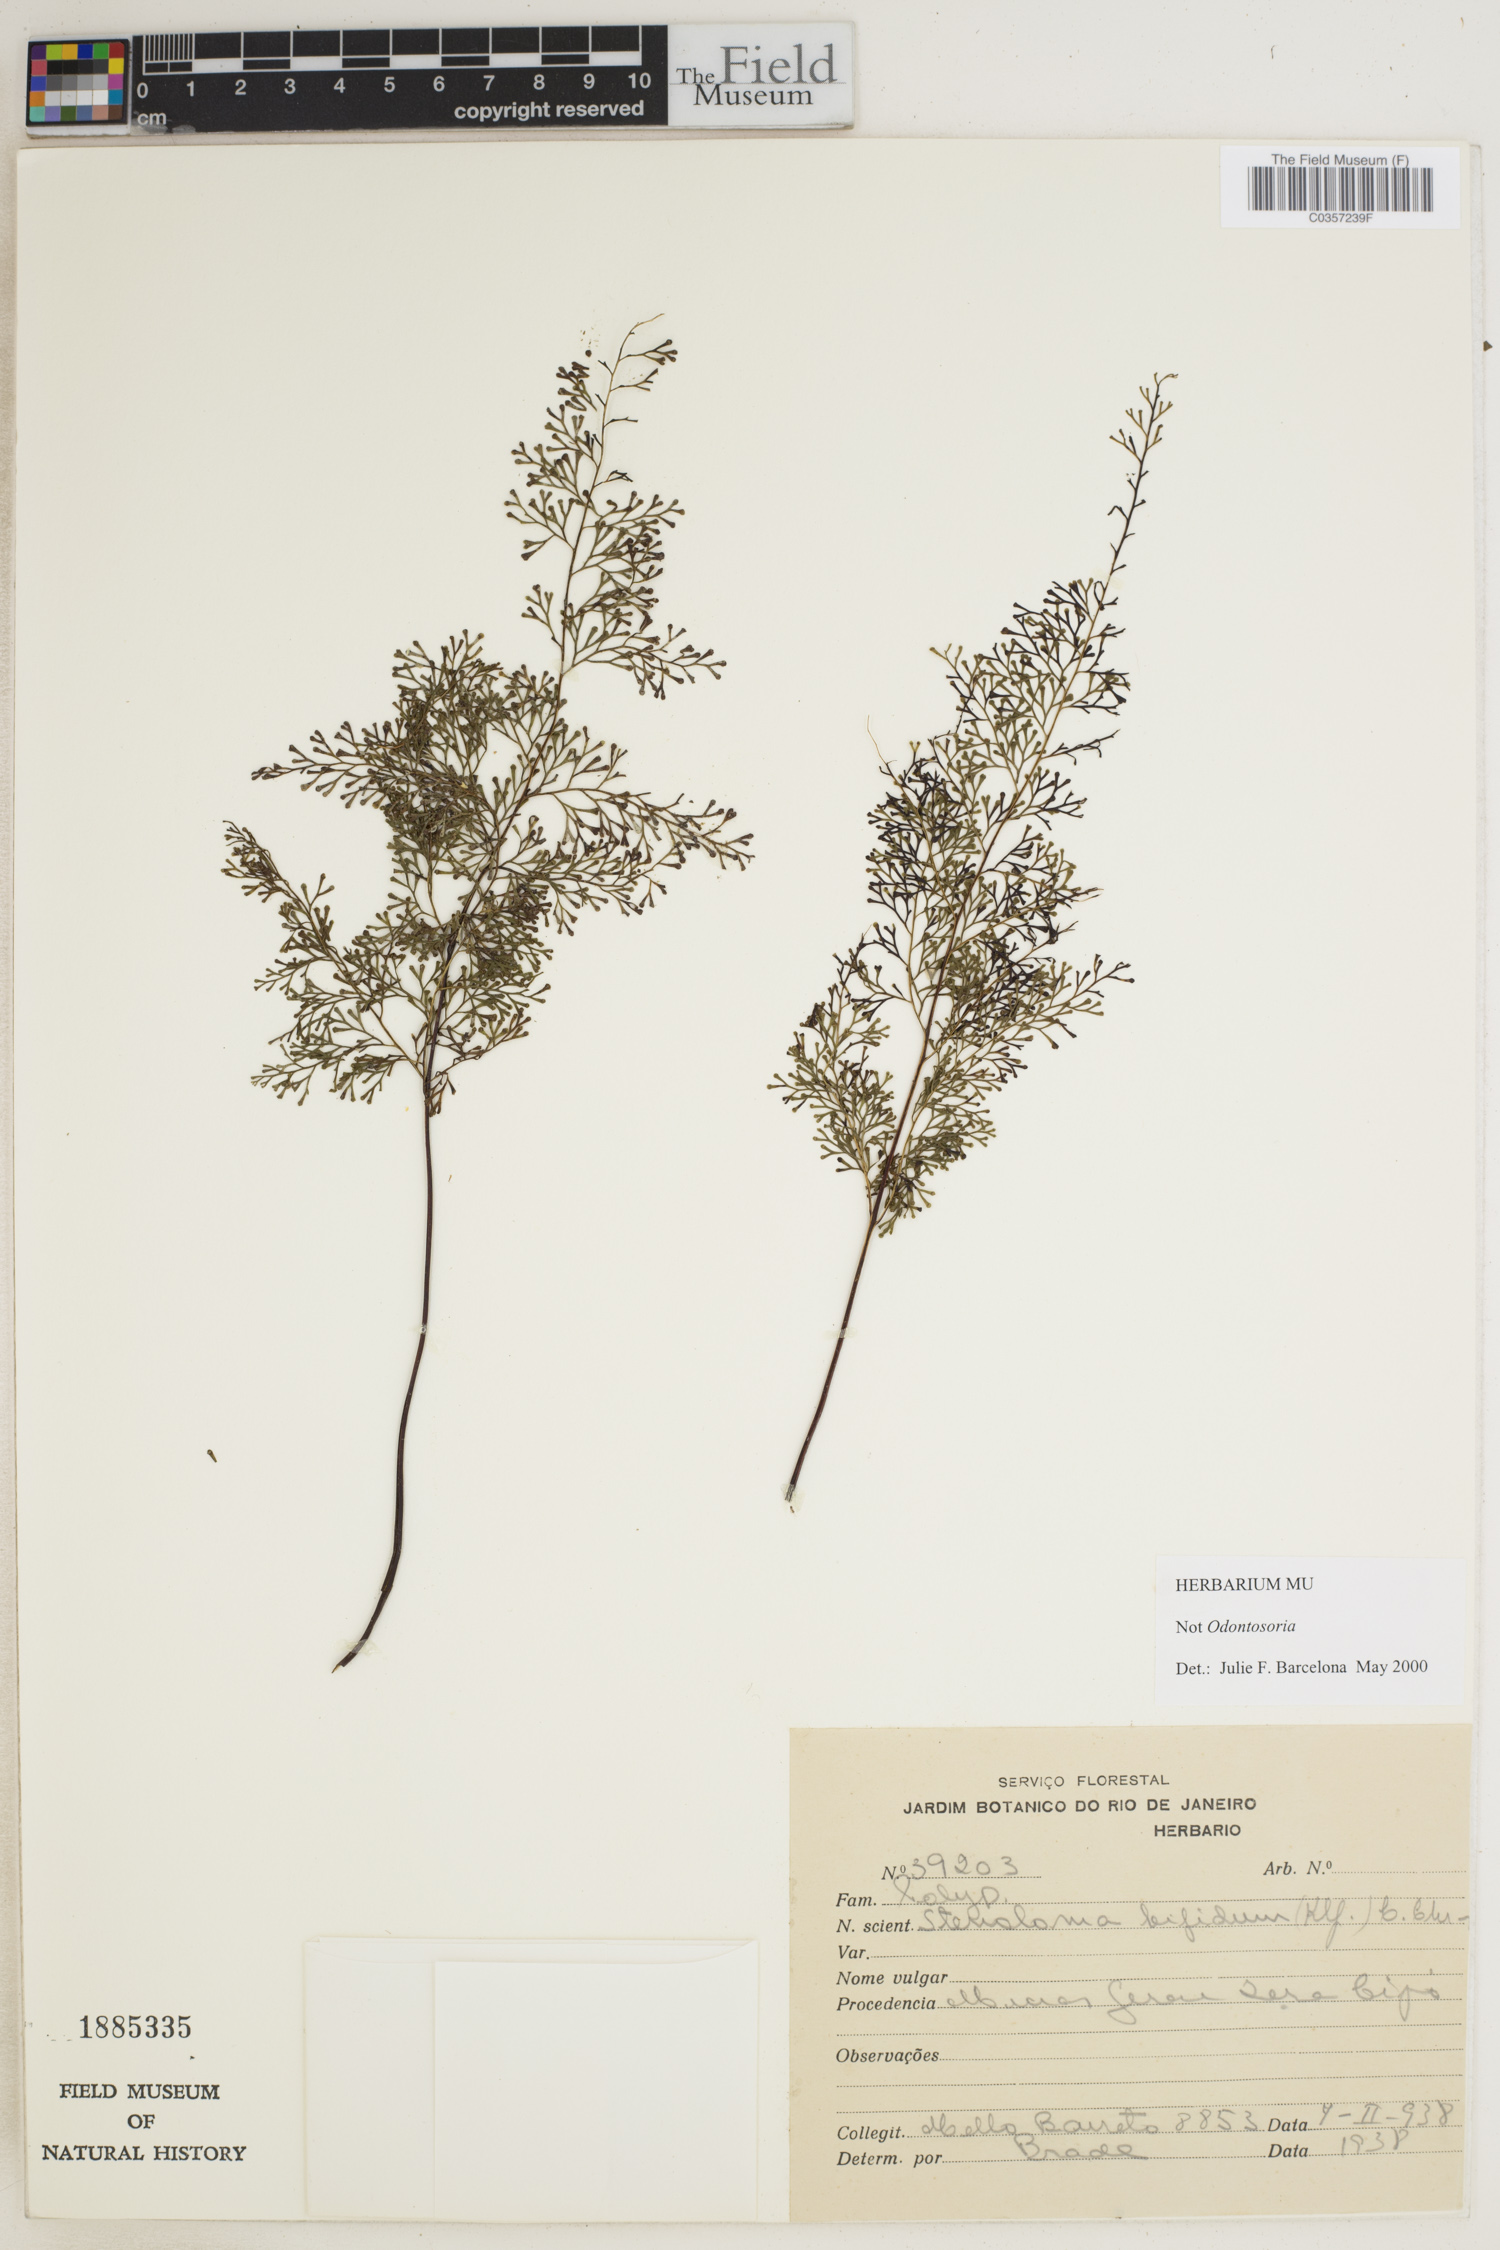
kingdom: Plantae
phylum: Tracheophyta
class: Polypodiopsida
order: Polypodiales
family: Lindsaeaceae
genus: Lindsaea
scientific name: Lindsaea bifida
